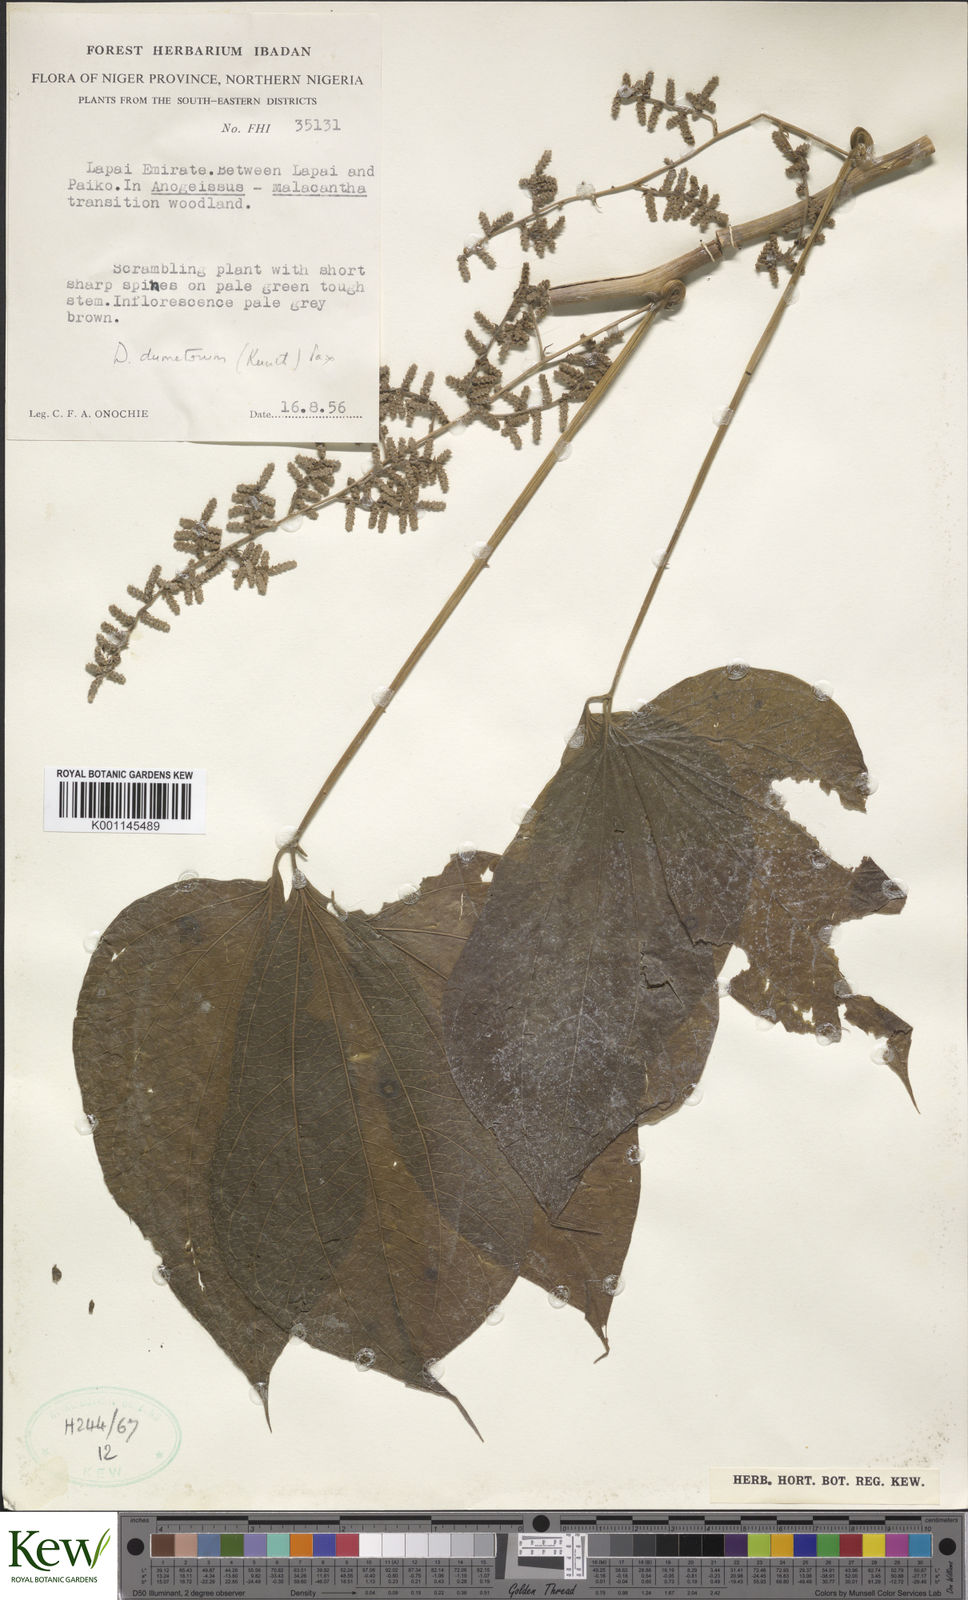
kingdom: Plantae
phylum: Tracheophyta
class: Liliopsida
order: Dioscoreales
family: Dioscoreaceae
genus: Dioscorea
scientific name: Dioscorea dumetorum
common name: African bitter yam
